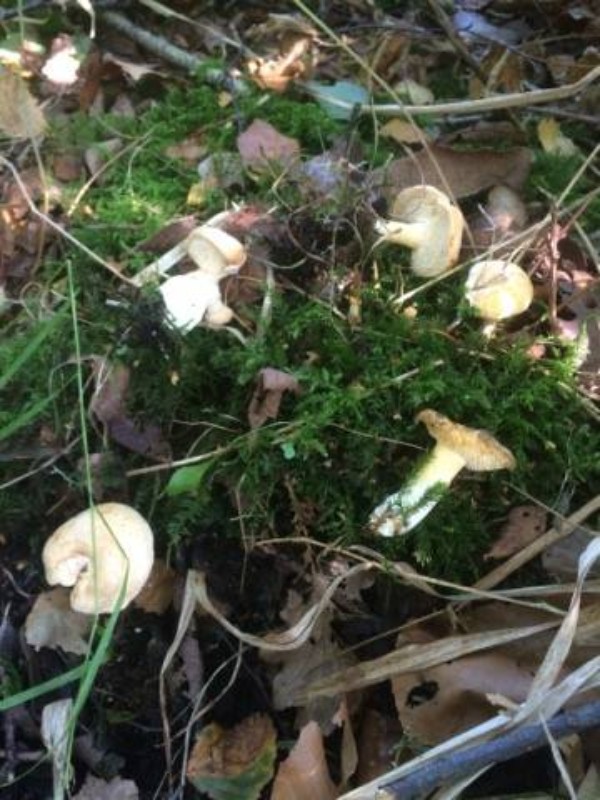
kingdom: Fungi
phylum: Basidiomycota
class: Agaricomycetes
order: Cantharellales
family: Hydnaceae
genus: Hydnum
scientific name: Hydnum magnorufescens
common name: brunende pigsvamp
